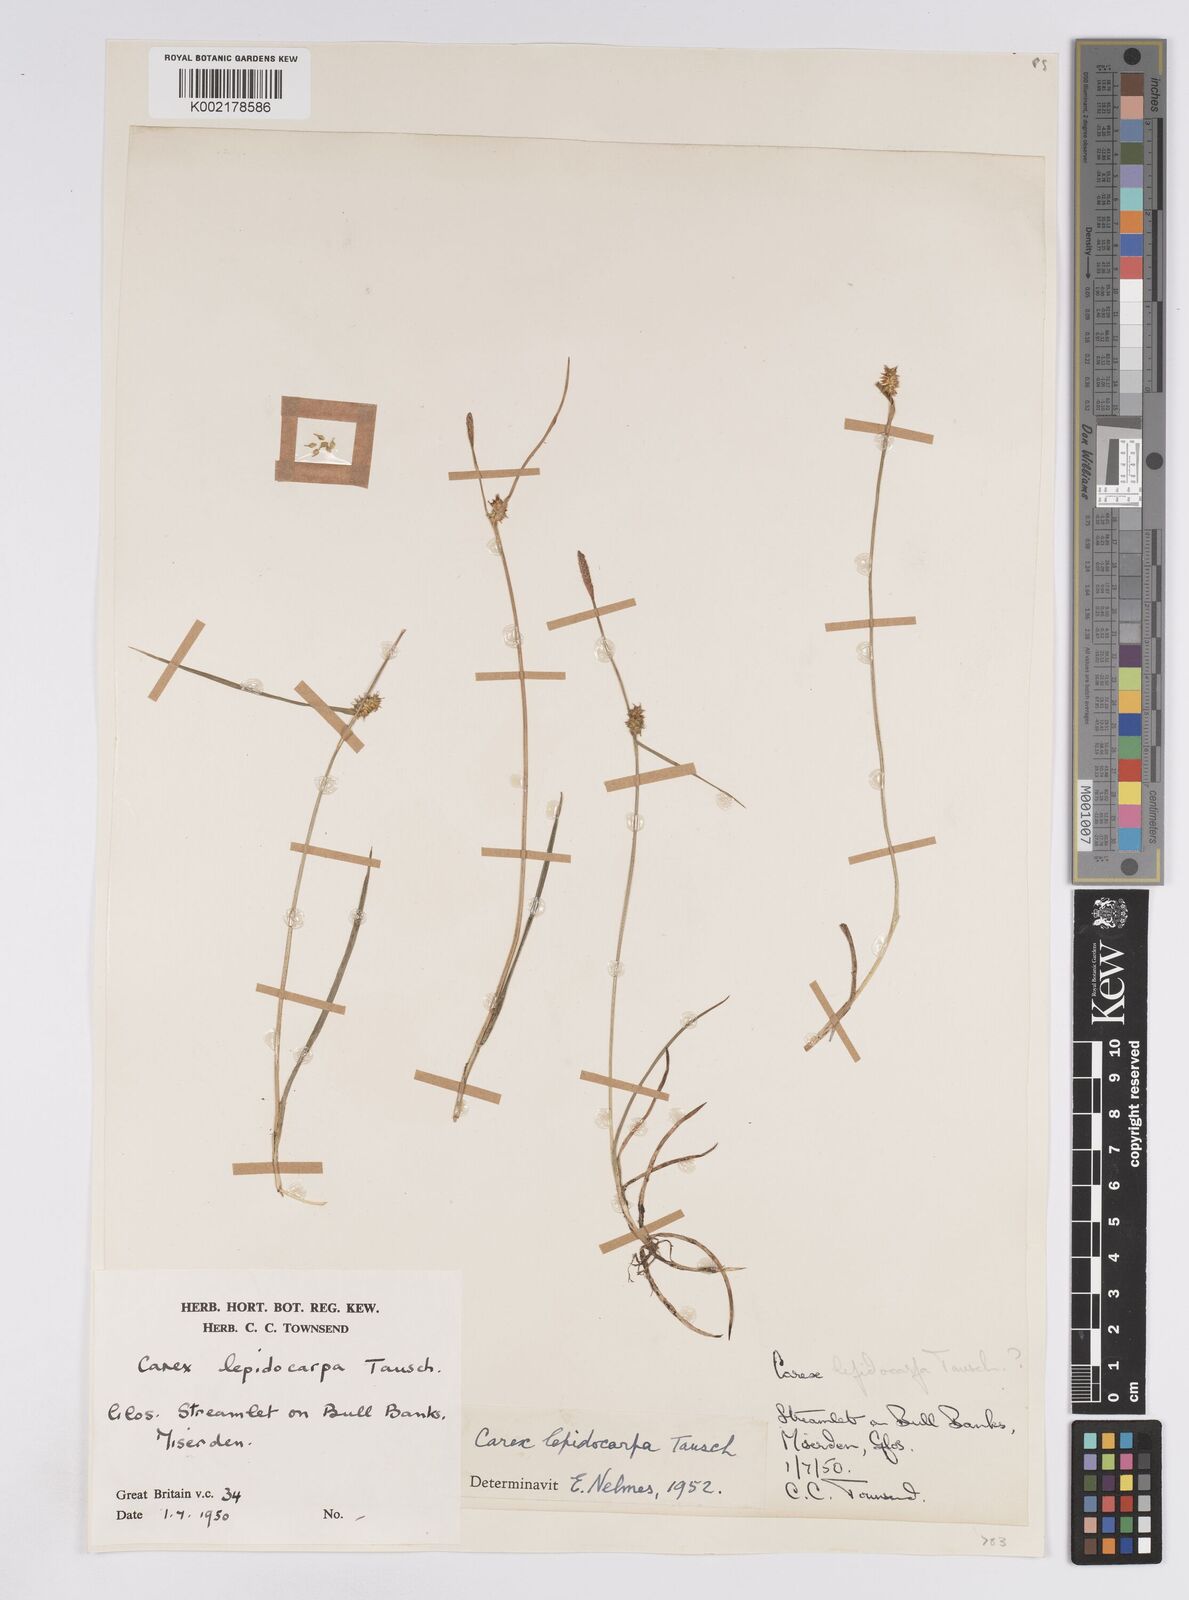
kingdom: Plantae
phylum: Tracheophyta
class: Liliopsida
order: Poales
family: Cyperaceae
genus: Carex
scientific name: Carex lepidocarpa
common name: Long-stalked yellow-sedge
